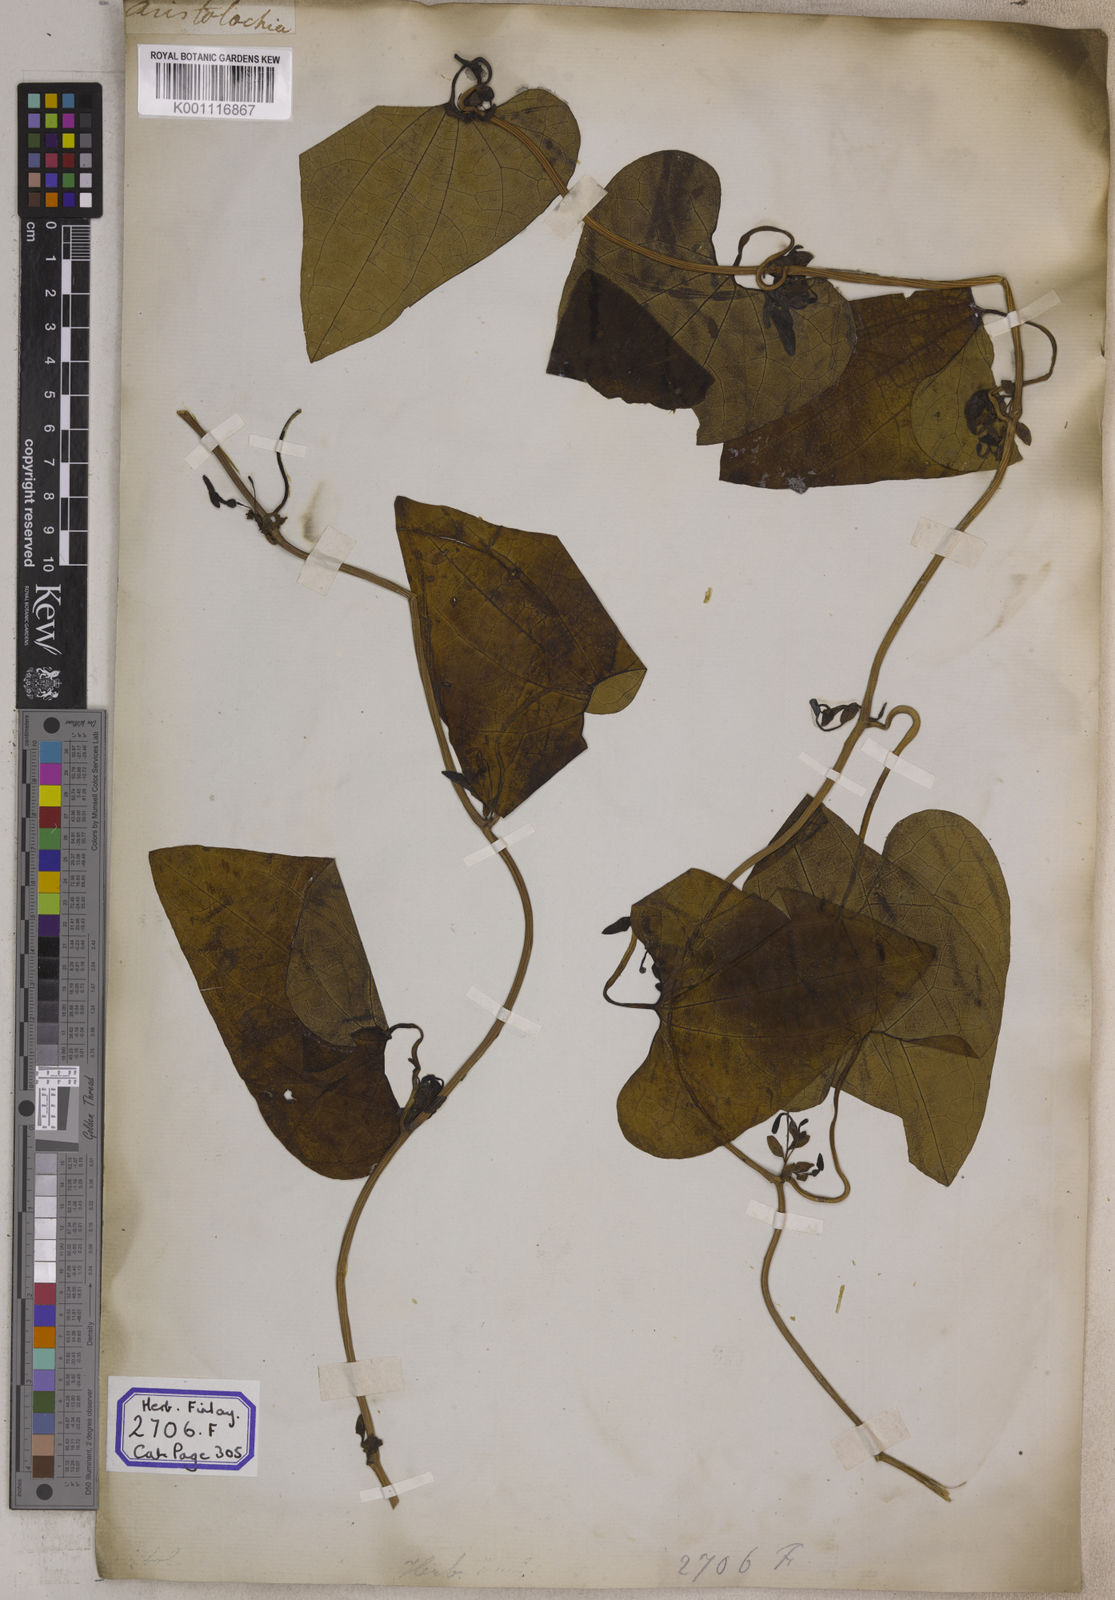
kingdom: Plantae
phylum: Tracheophyta
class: Magnoliopsida
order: Piperales
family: Aristolochiaceae
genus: Aristolochia
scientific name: Aristolochia bracteolata
